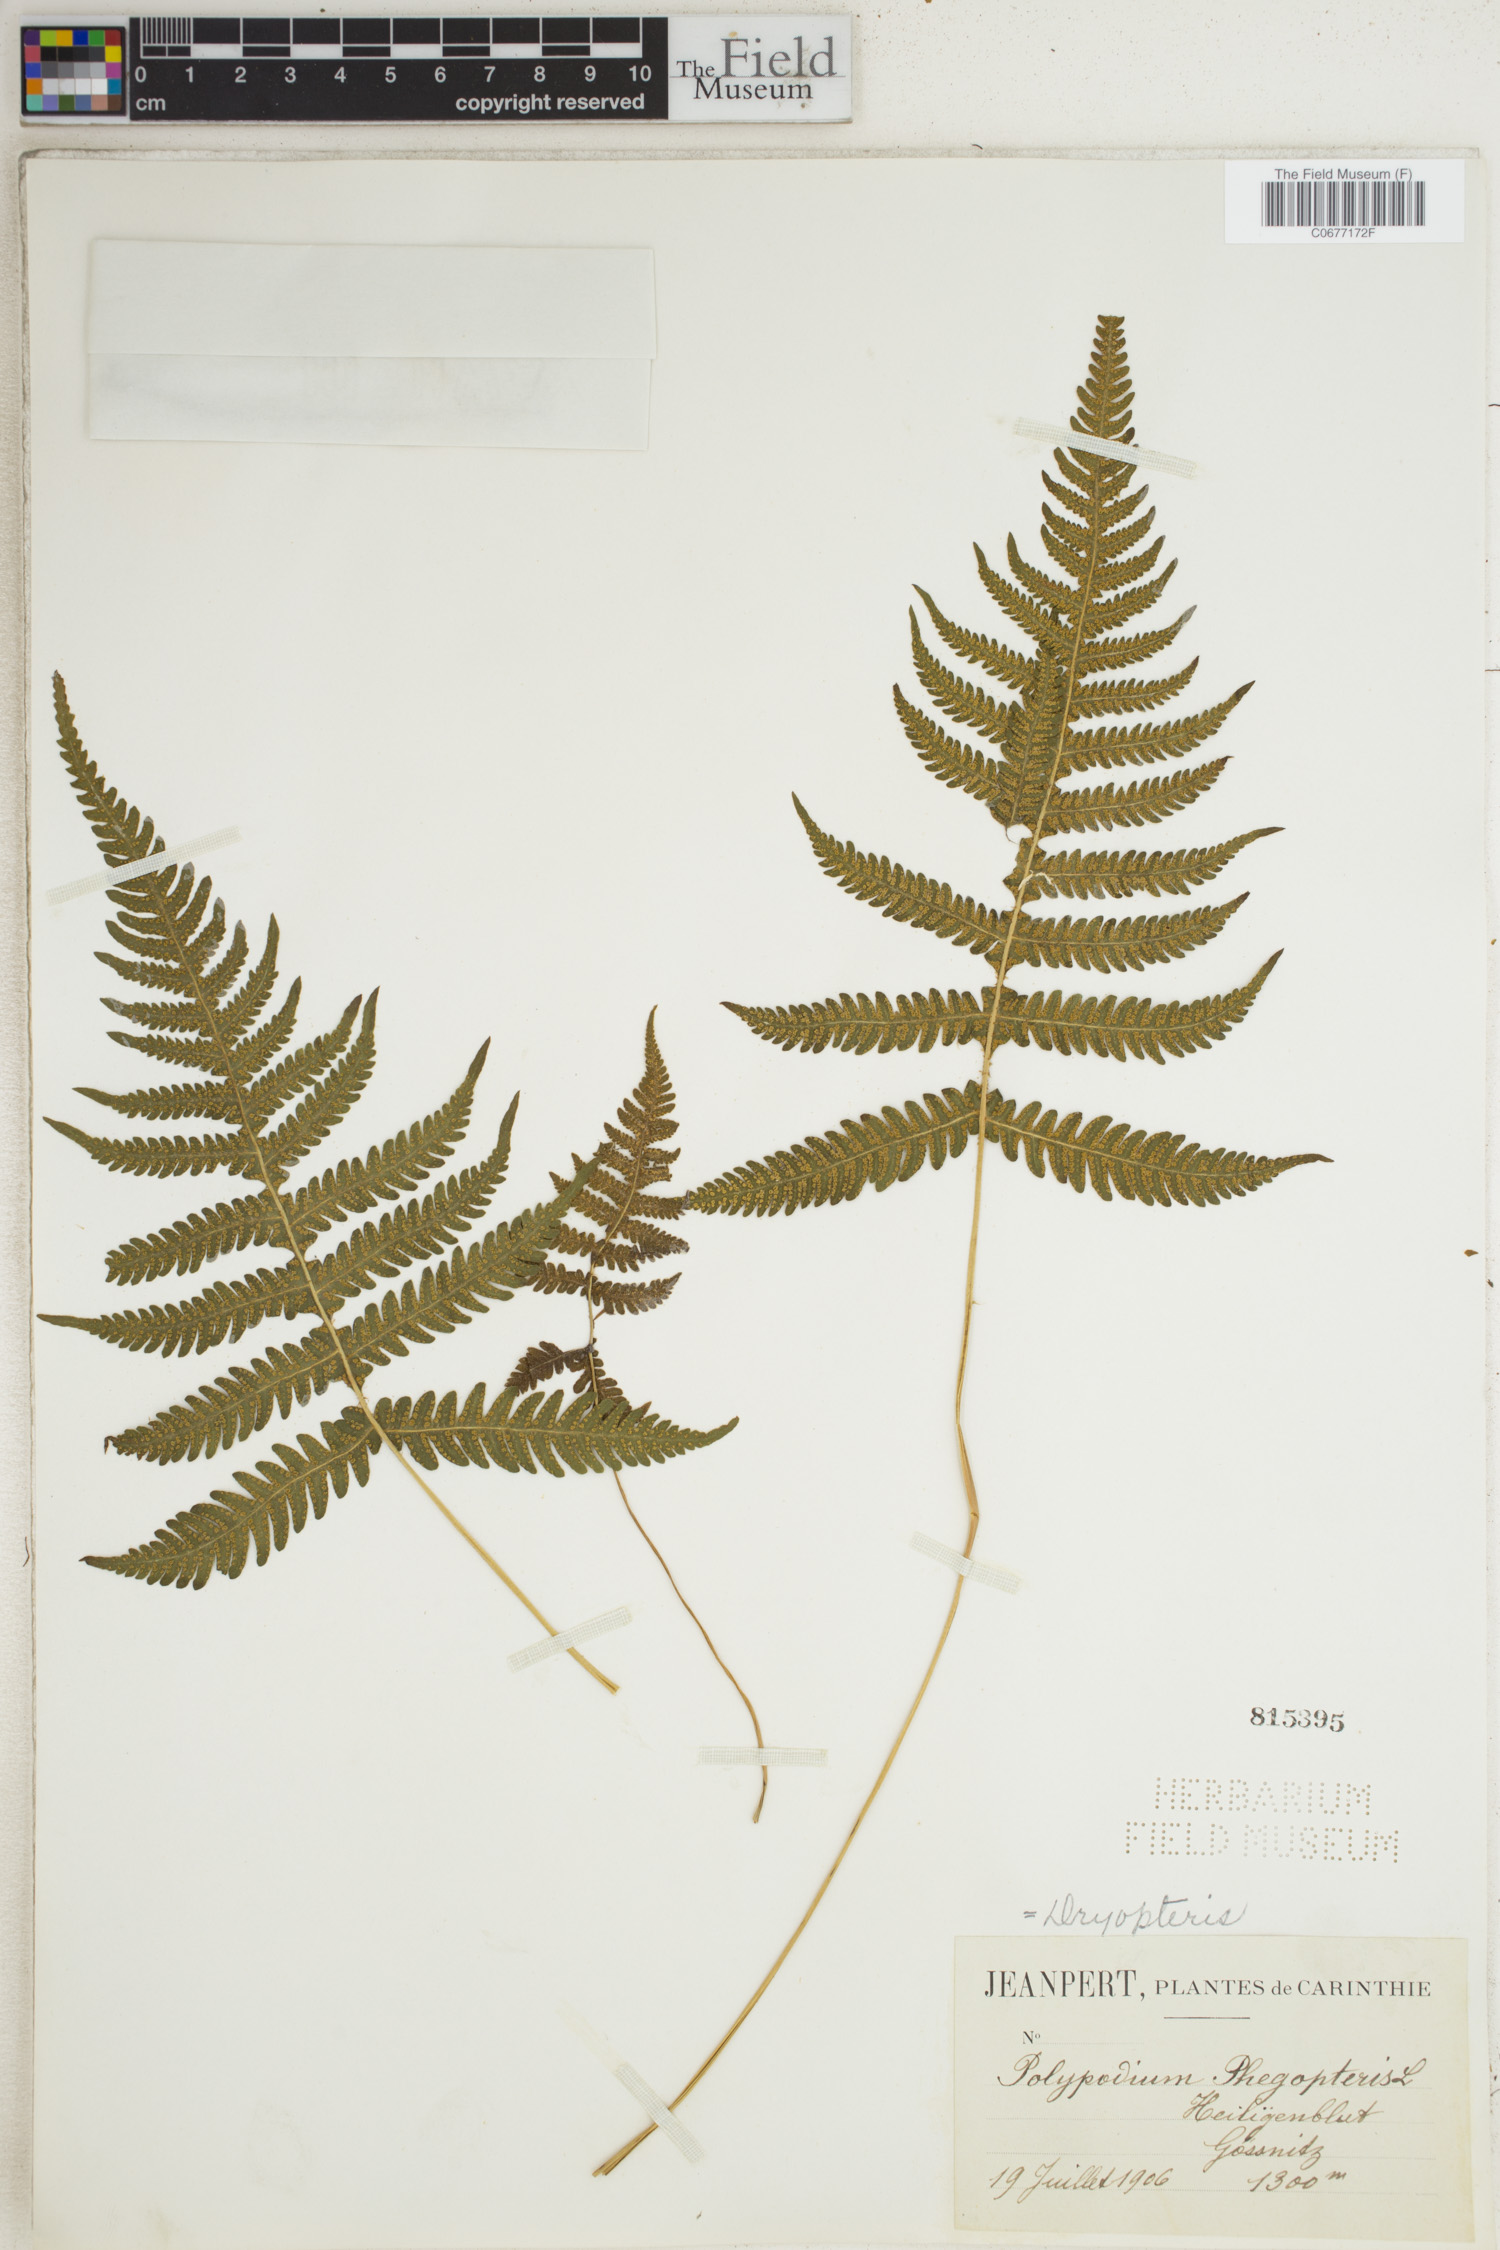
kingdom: Plantae
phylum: Tracheophyta
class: Polypodiopsida
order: Polypodiales
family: Thelypteridaceae
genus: Phegopteris
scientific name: Phegopteris connectilis
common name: Beech fern
